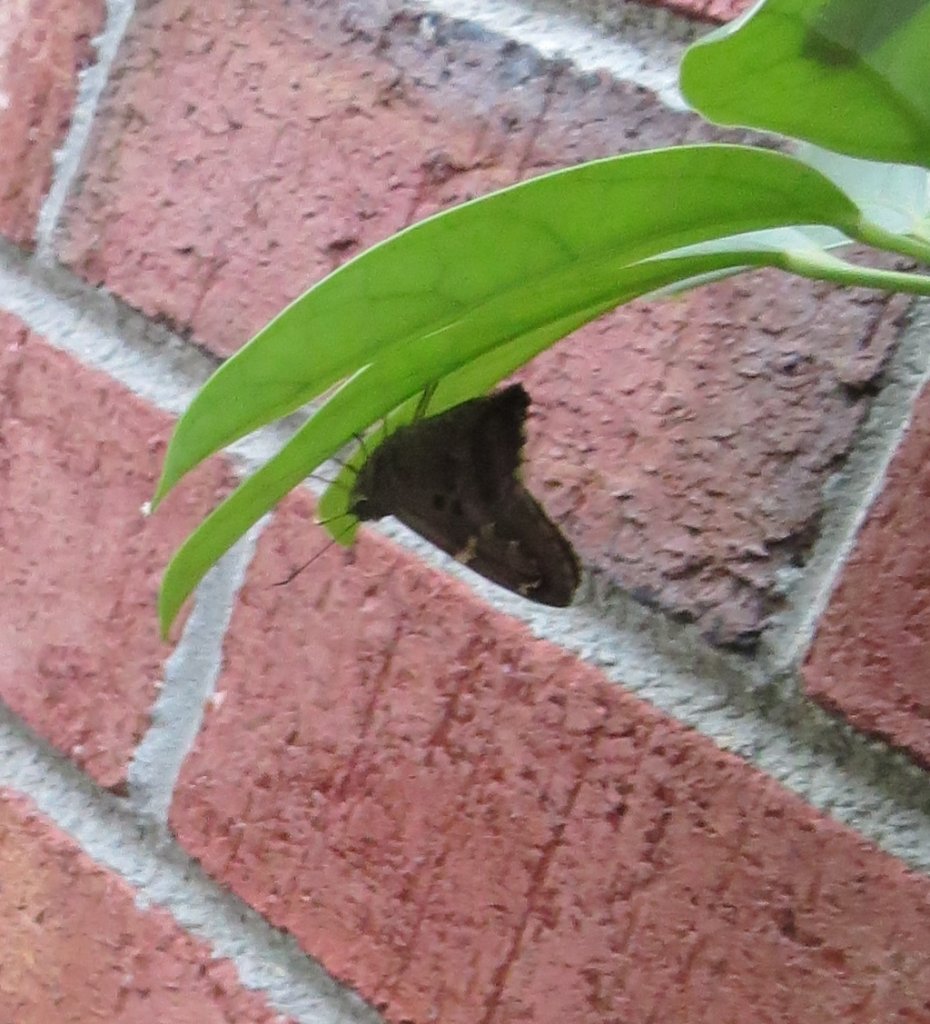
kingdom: Animalia
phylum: Arthropoda
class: Insecta
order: Lepidoptera
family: Hesperiidae
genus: Urbanus
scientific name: Urbanus proteus
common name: Long-tailed Skipper
